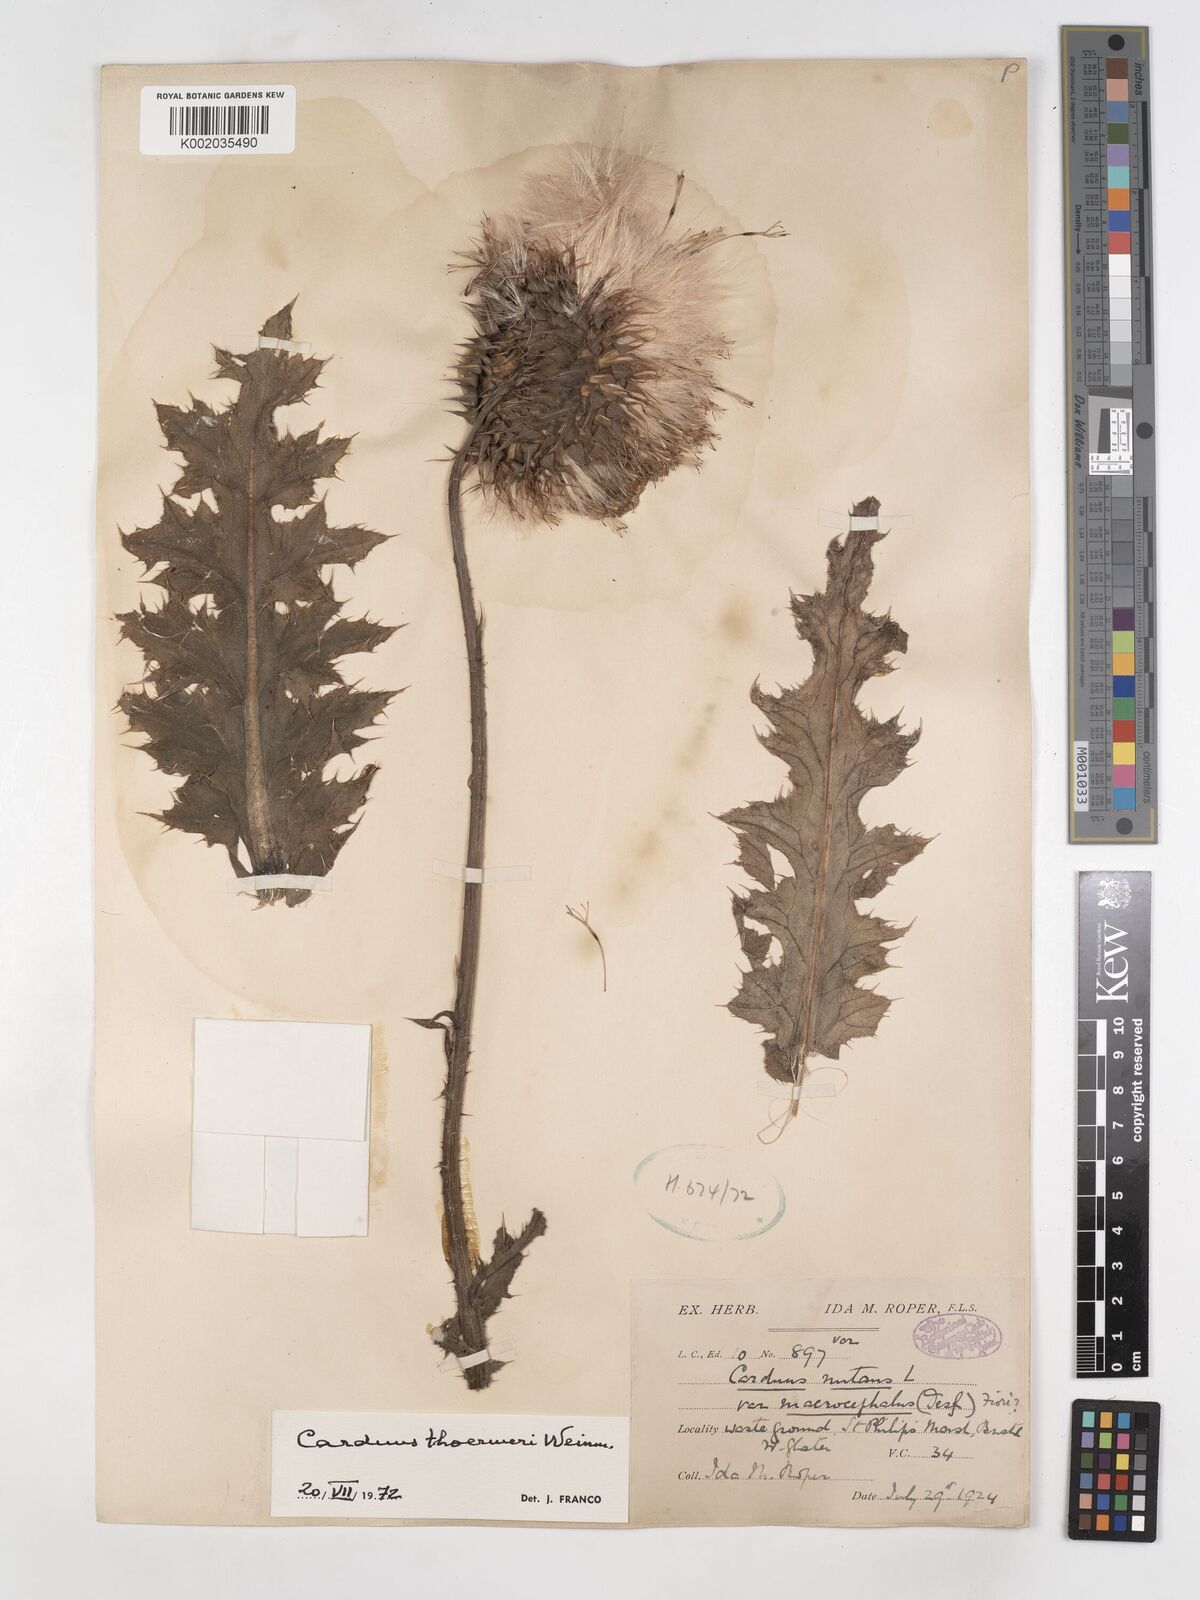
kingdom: Plantae
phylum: Tracheophyta
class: Magnoliopsida
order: Asterales
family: Asteraceae
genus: Carduus
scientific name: Carduus nutans
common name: Musk thistle
